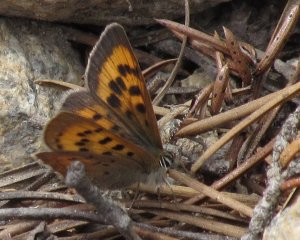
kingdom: Animalia
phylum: Arthropoda
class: Insecta
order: Lepidoptera
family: Lycaenidae
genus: Lycaena
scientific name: Lycaena cupreus
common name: Lustrous Copper
